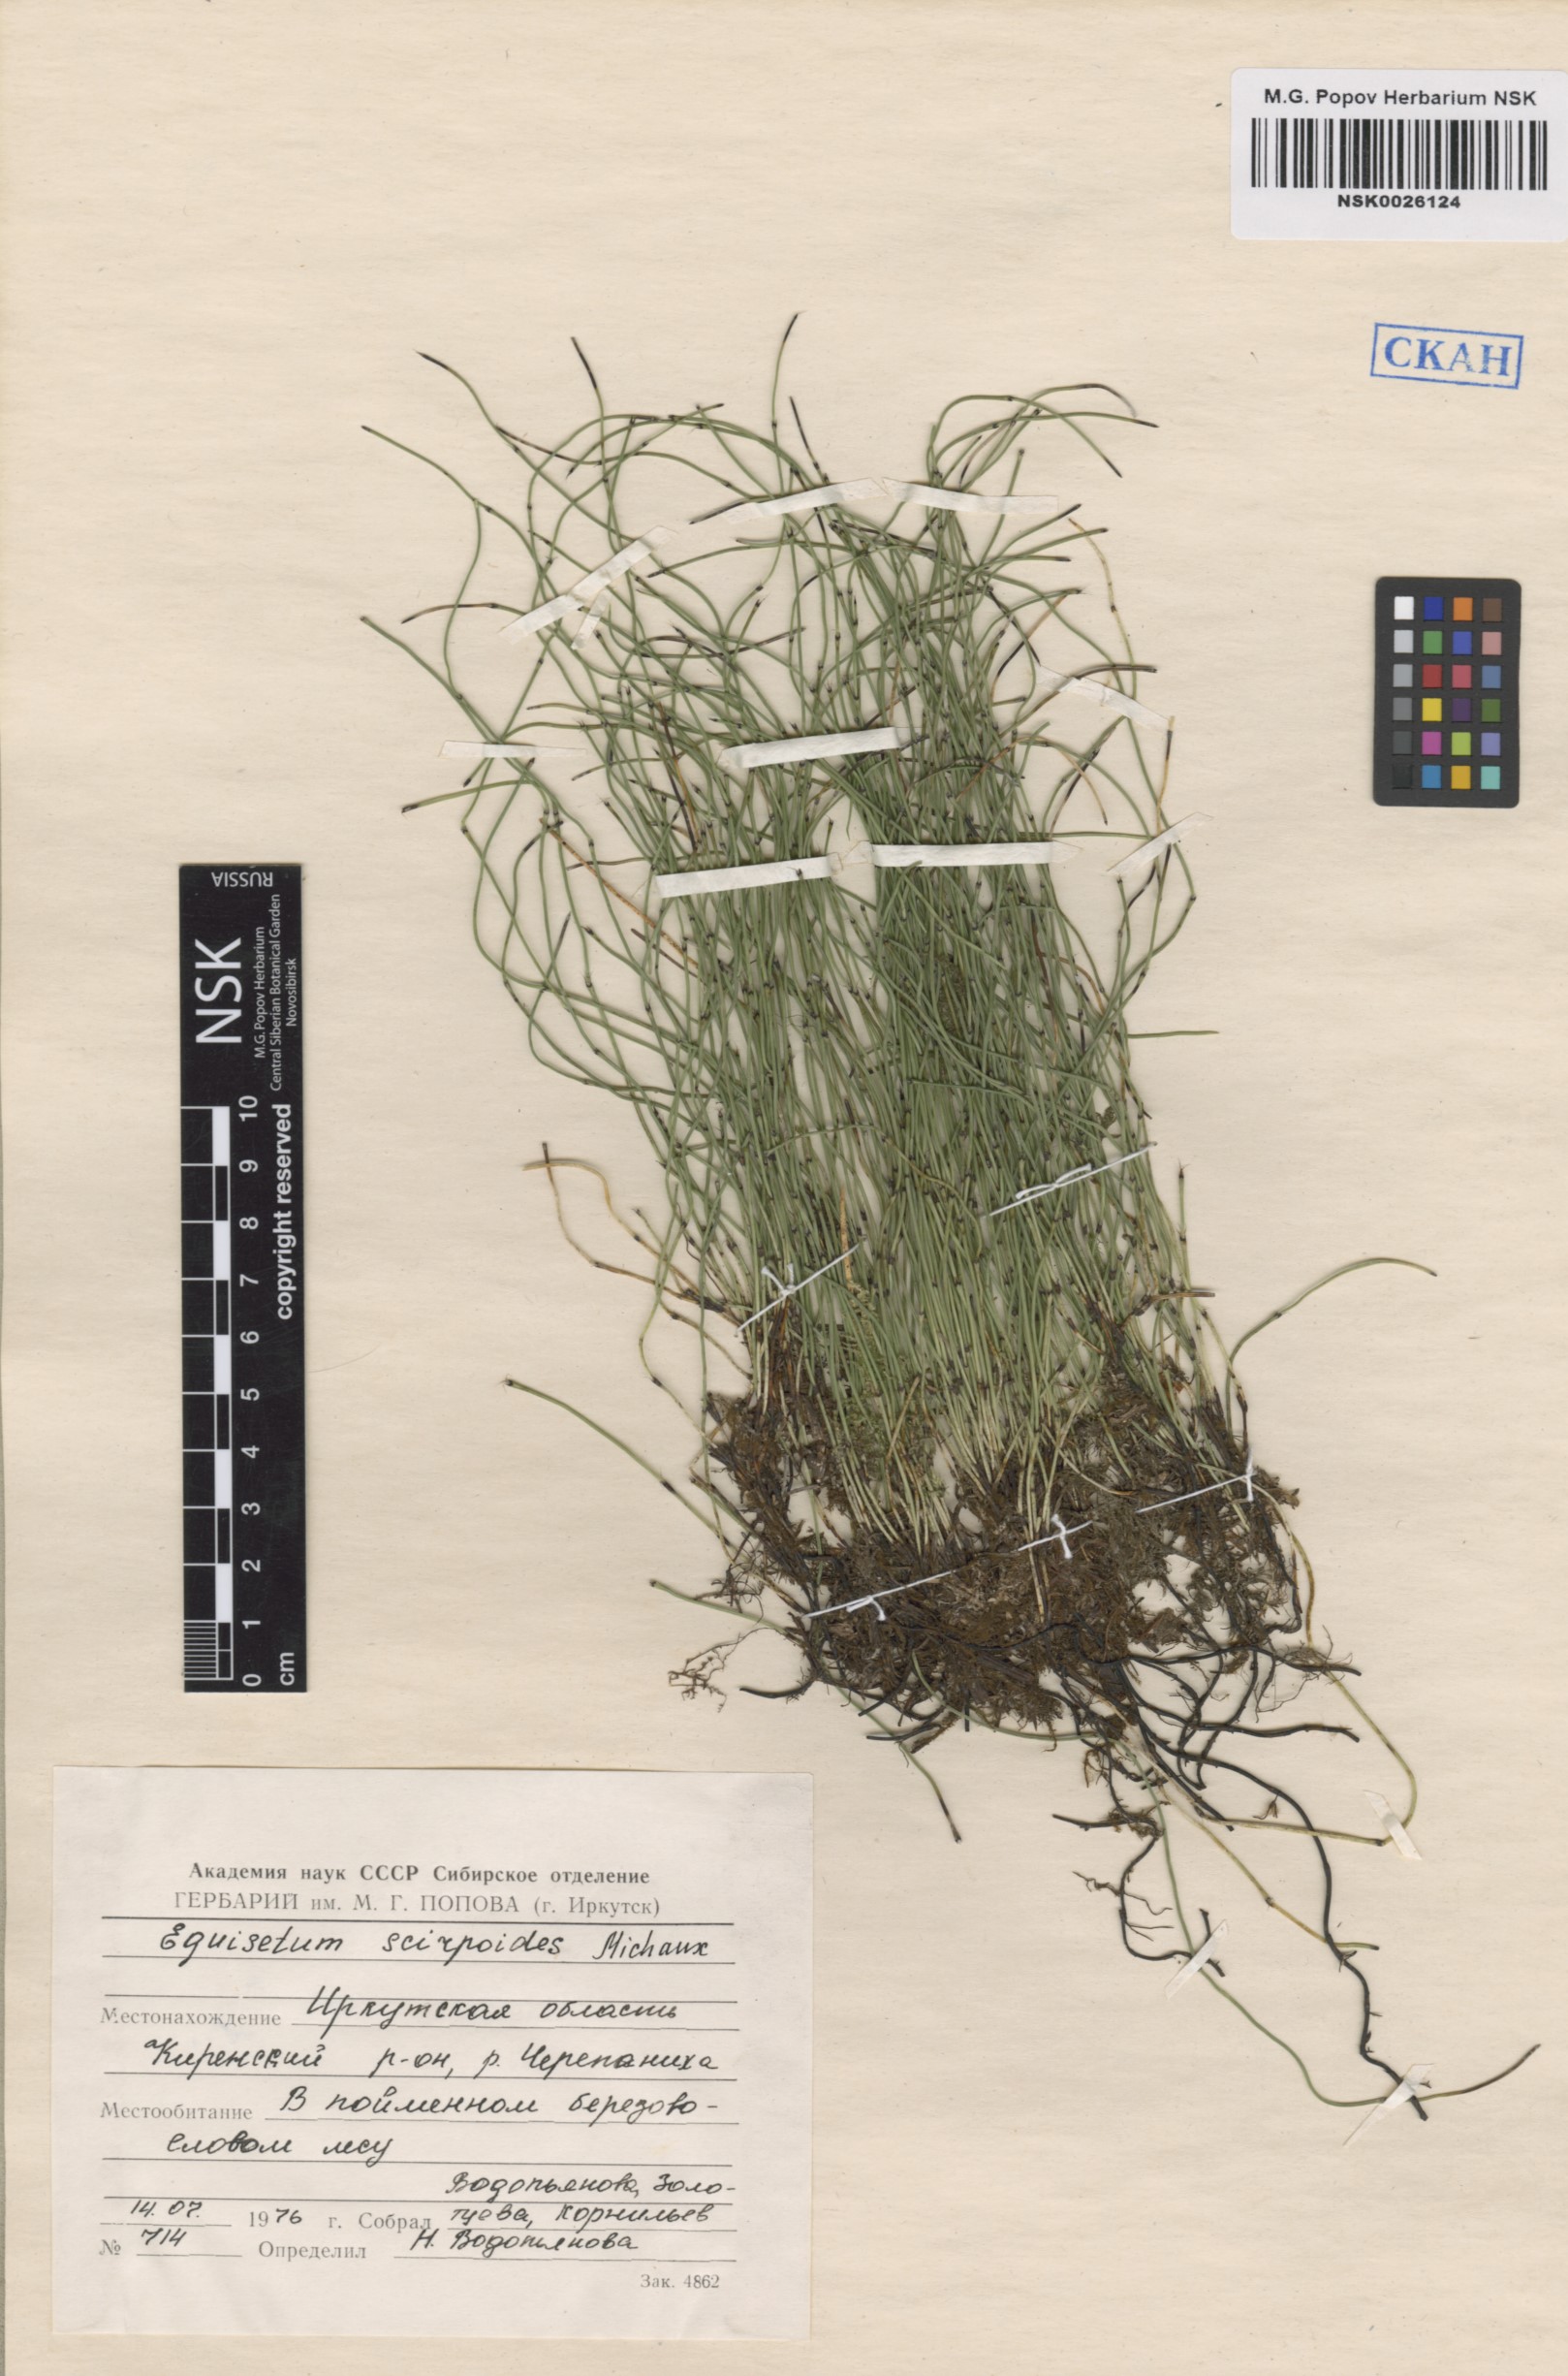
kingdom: Plantae
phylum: Tracheophyta
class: Polypodiopsida
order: Equisetales
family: Equisetaceae
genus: Equisetum
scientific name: Equisetum scirpoides
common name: Delicate horsetail
